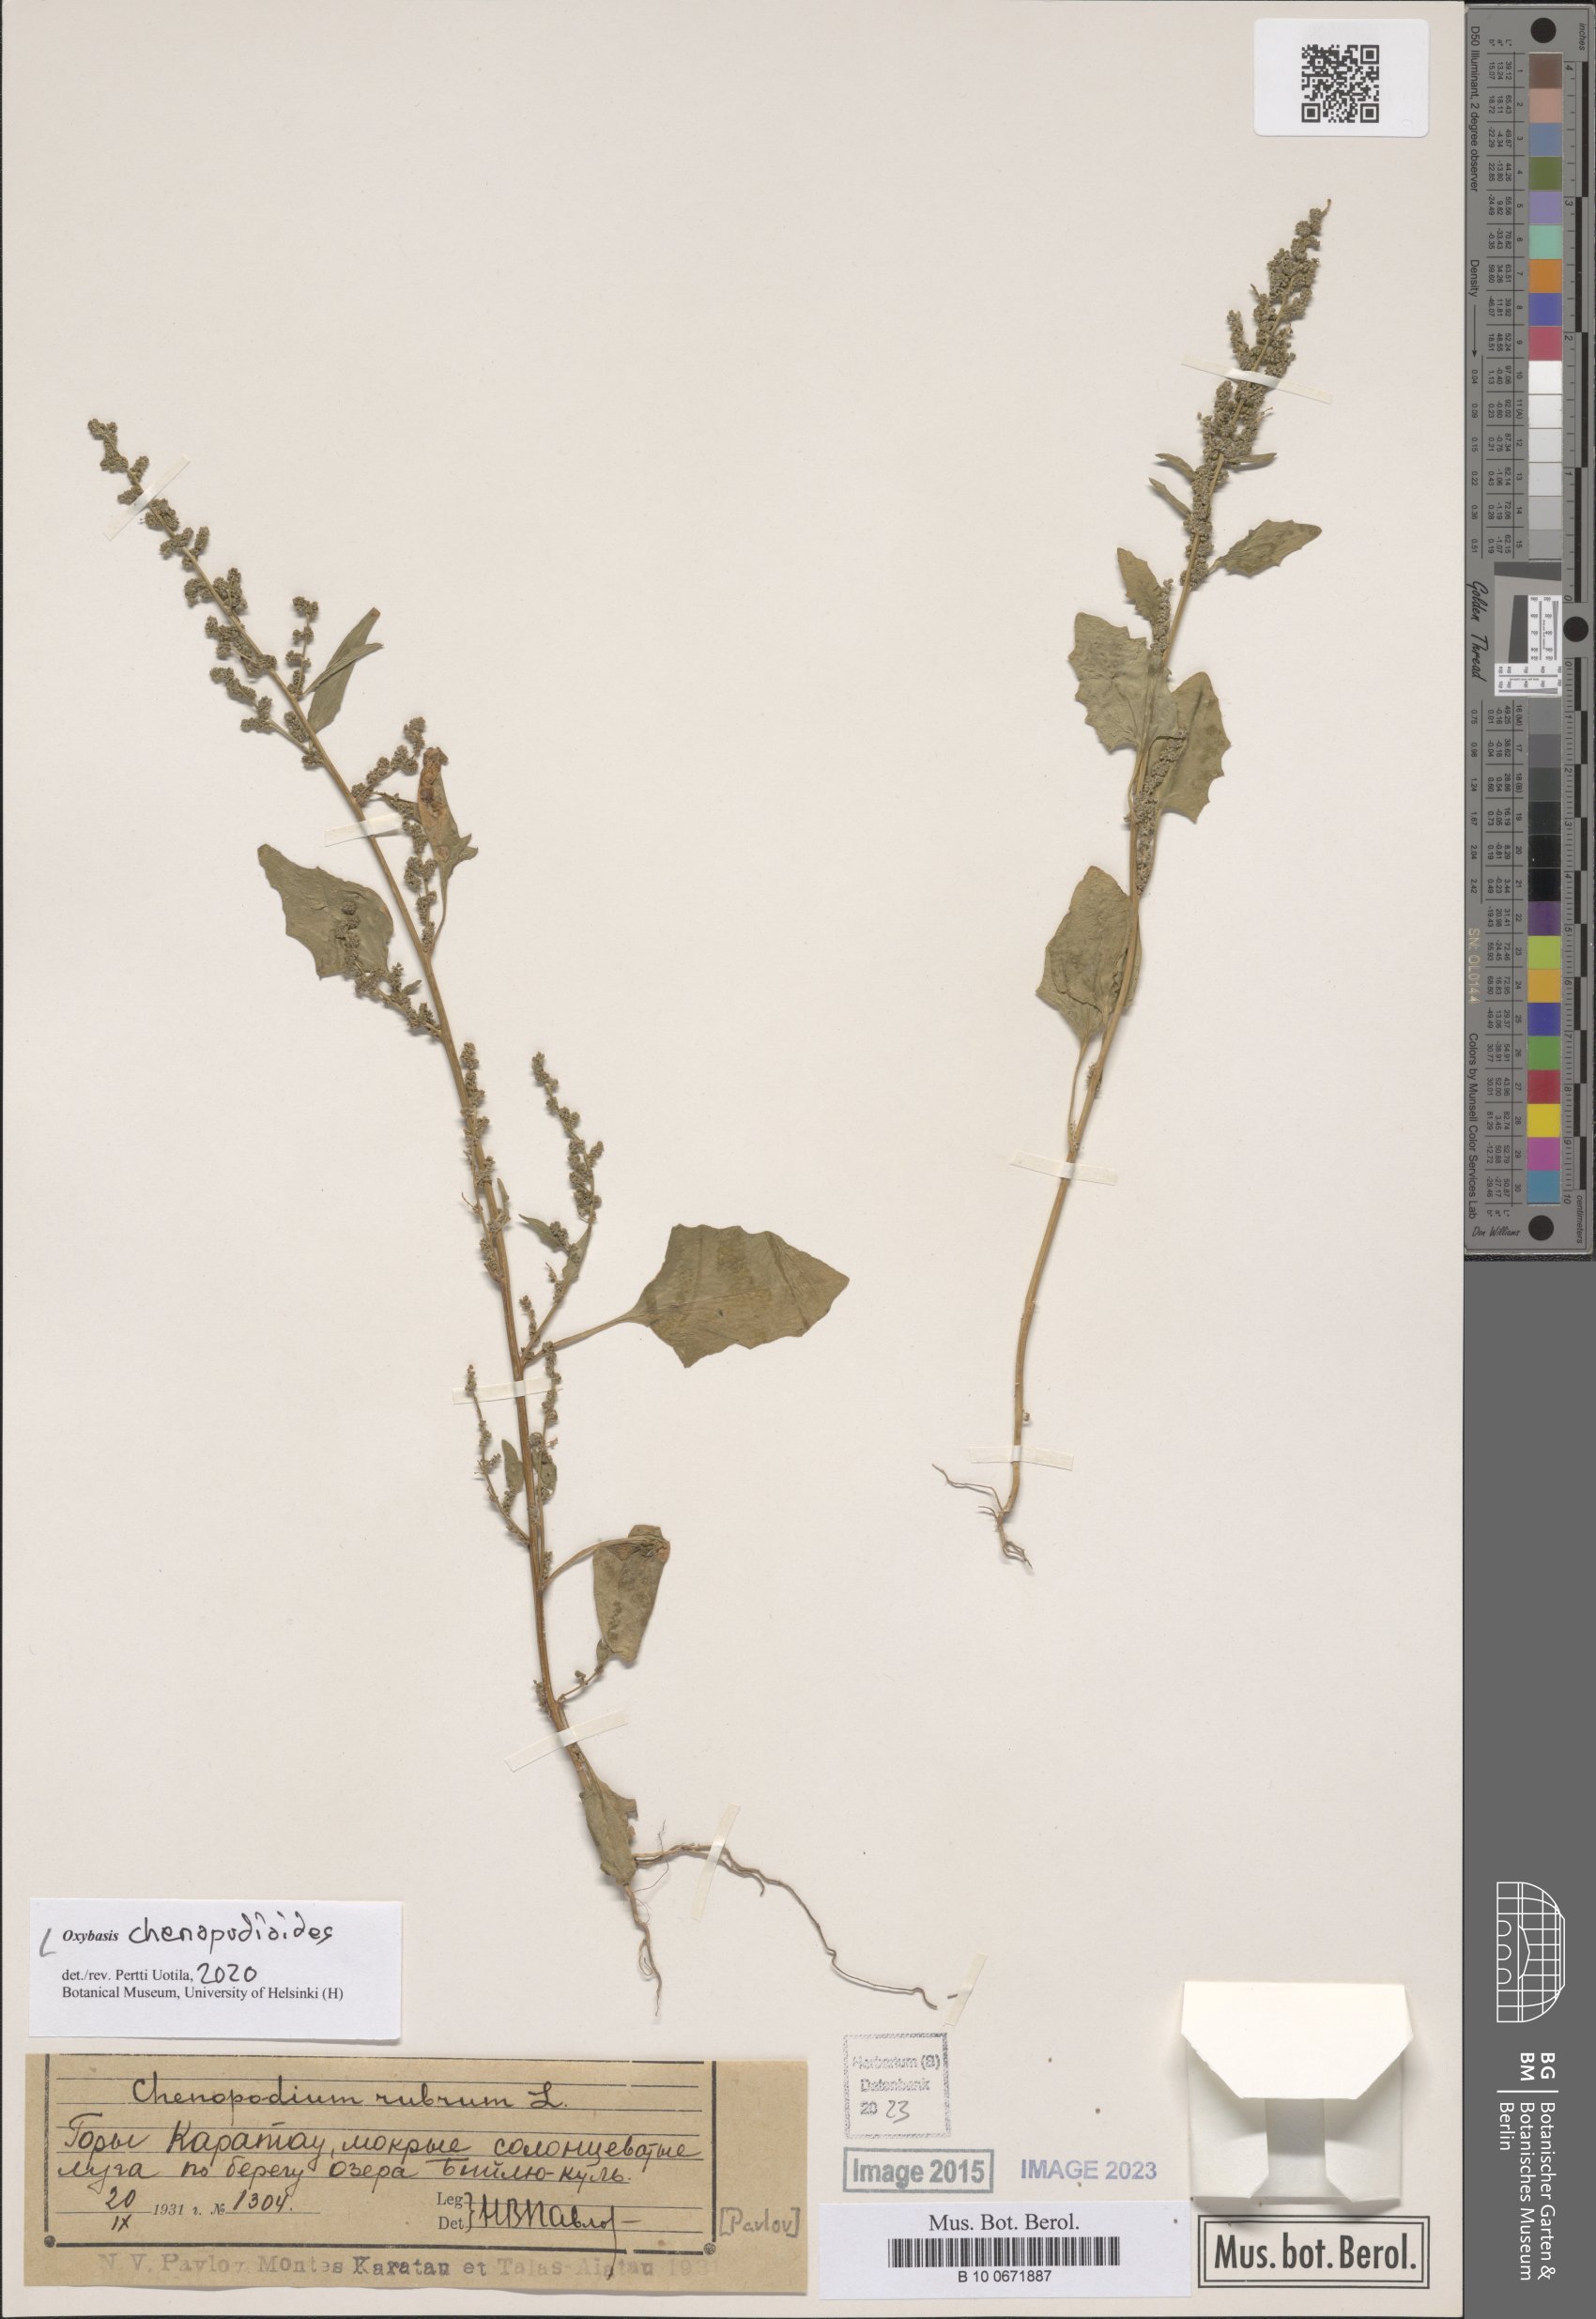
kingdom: Plantae
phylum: Tracheophyta
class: Magnoliopsida
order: Caryophyllales
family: Amaranthaceae
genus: Oxybasis
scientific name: Oxybasis chenopodioides
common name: Saltmarsh goosefoot
